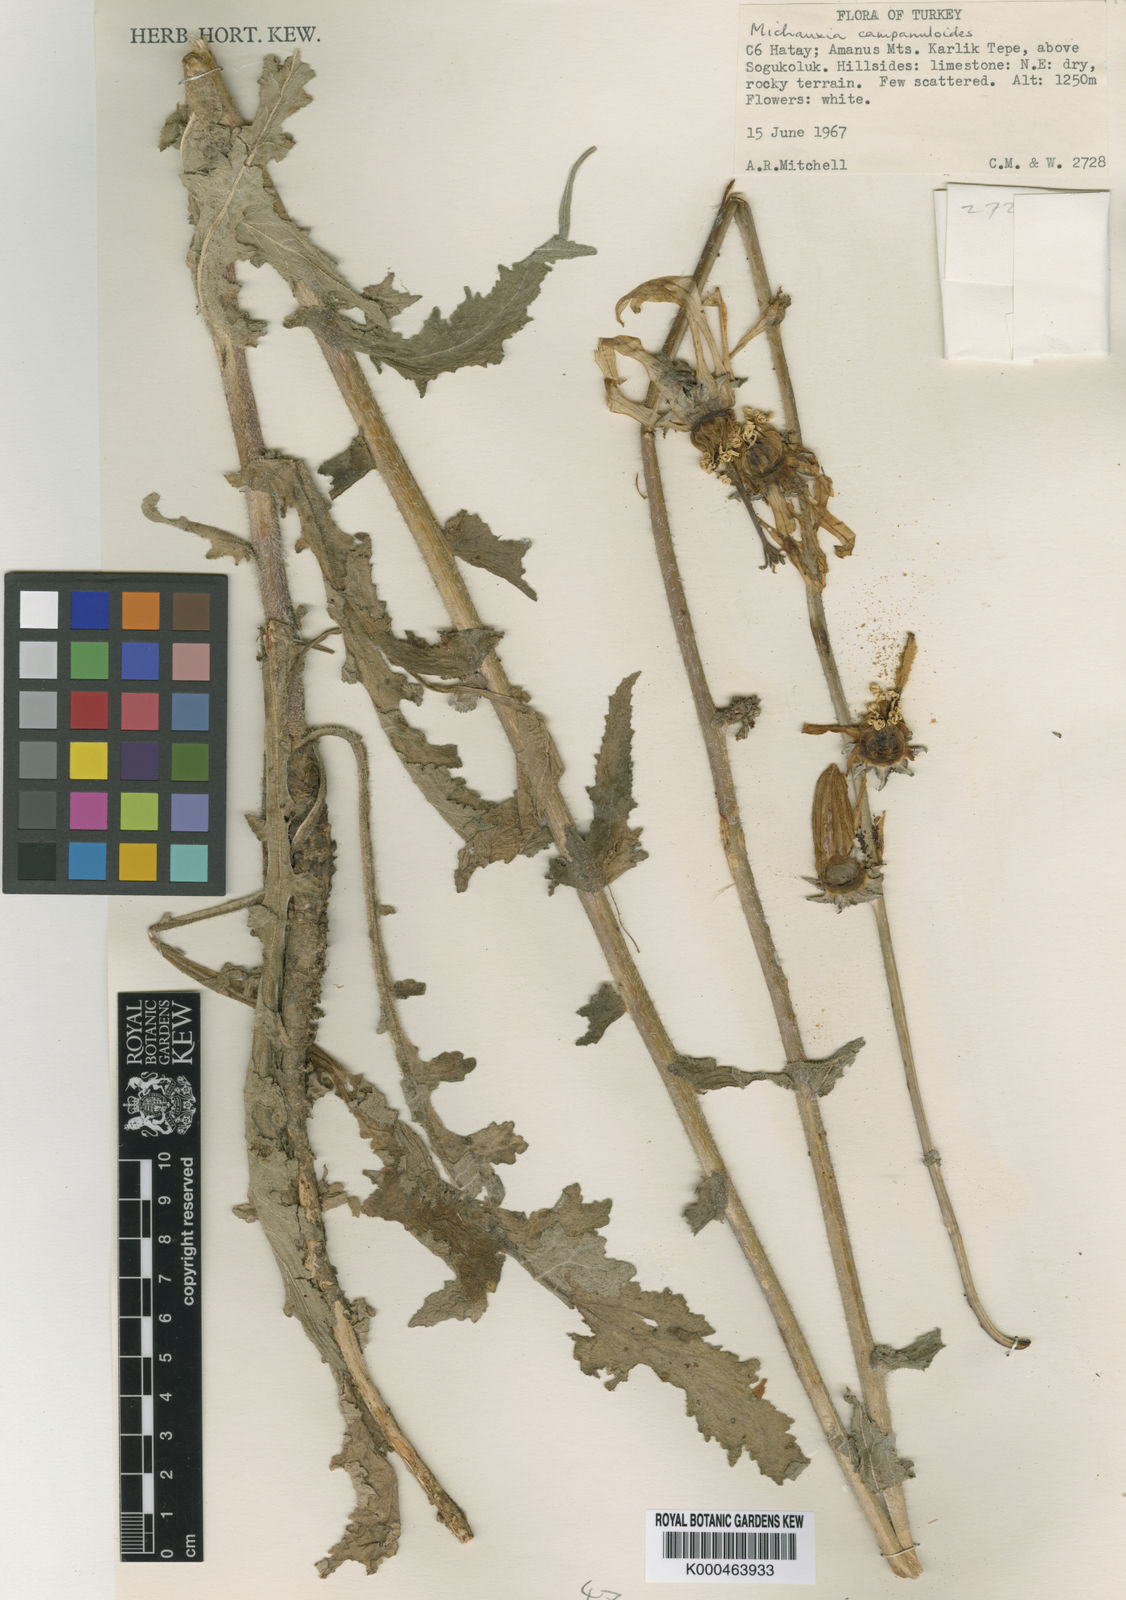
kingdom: Plantae
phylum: Tracheophyta
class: Magnoliopsida
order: Asterales
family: Campanulaceae
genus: Michauxia
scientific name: Michauxia
